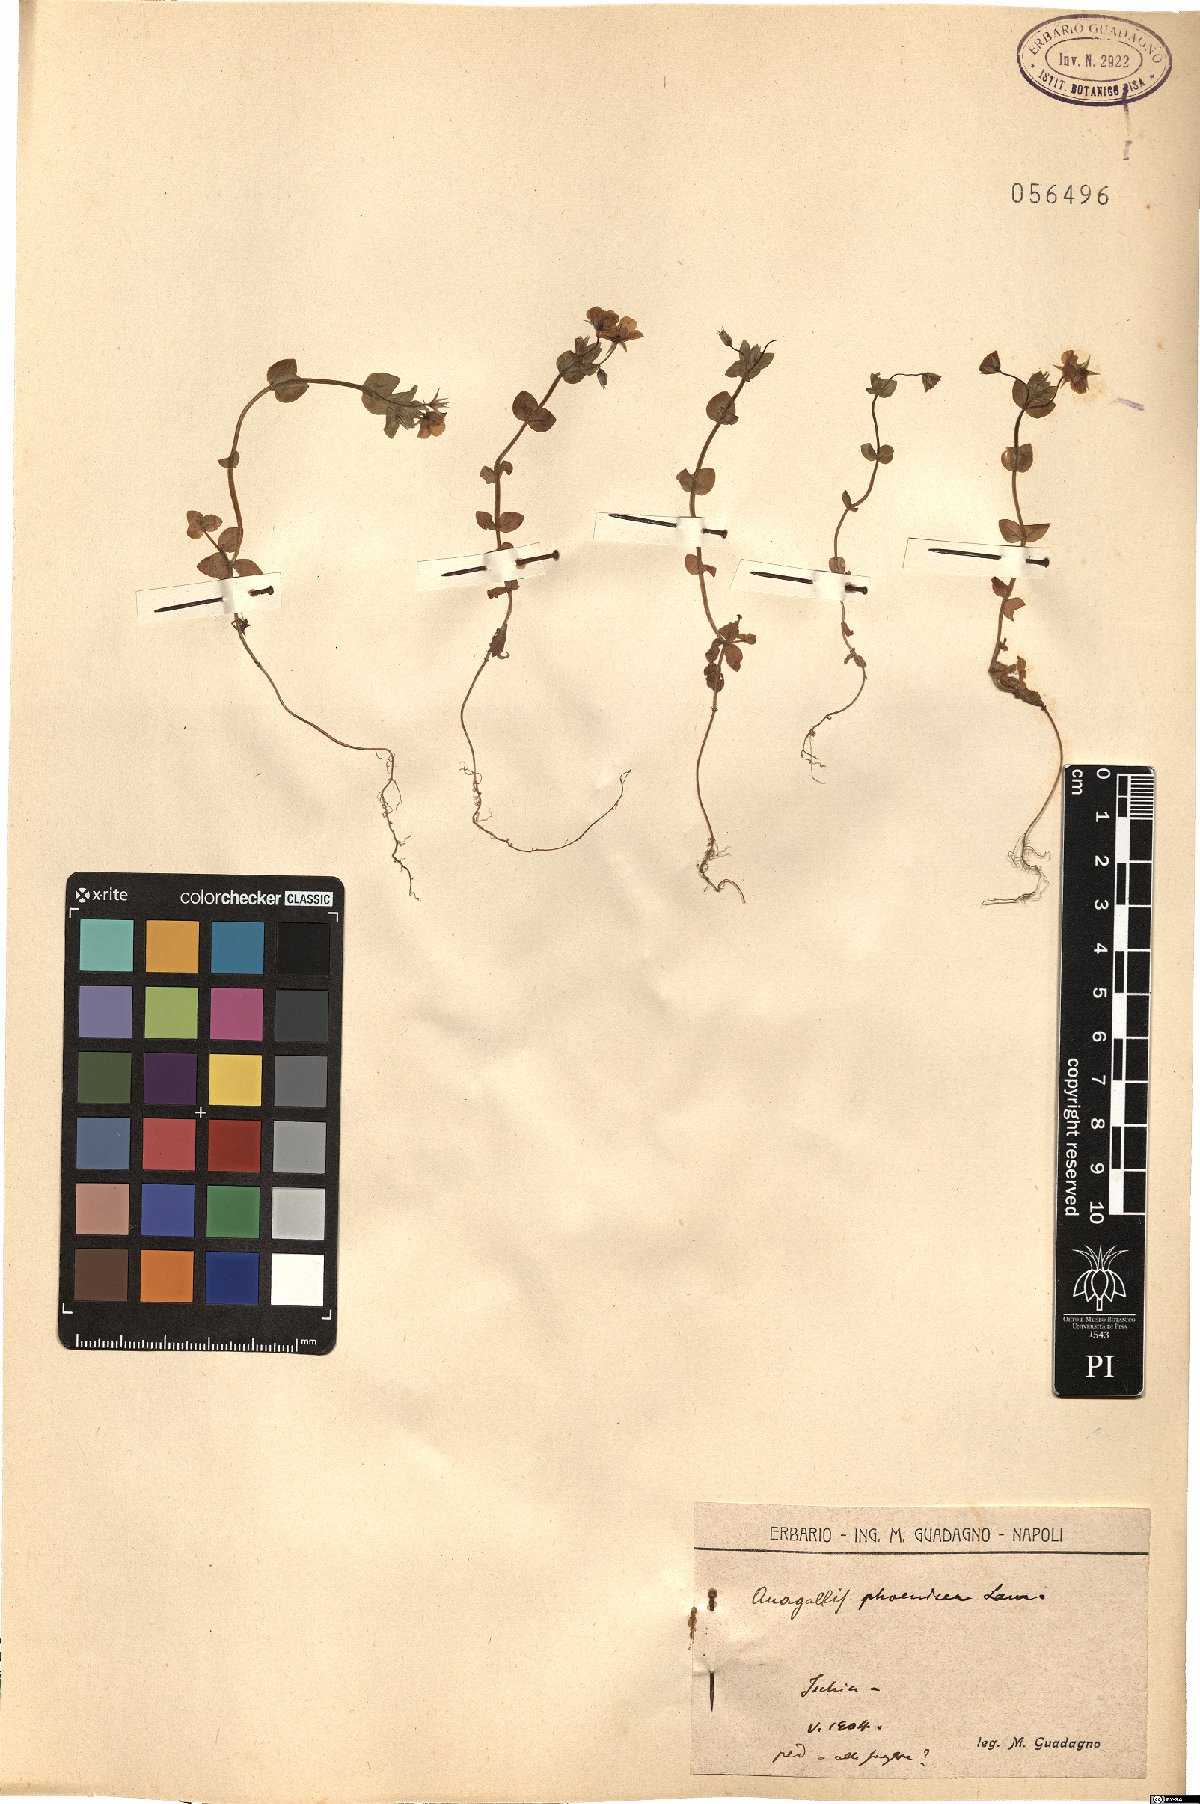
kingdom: Plantae
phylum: Tracheophyta
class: Magnoliopsida
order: Ericales
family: Primulaceae
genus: Lysimachia
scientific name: Lysimachia arvensis
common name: Scarlet pimpernel
